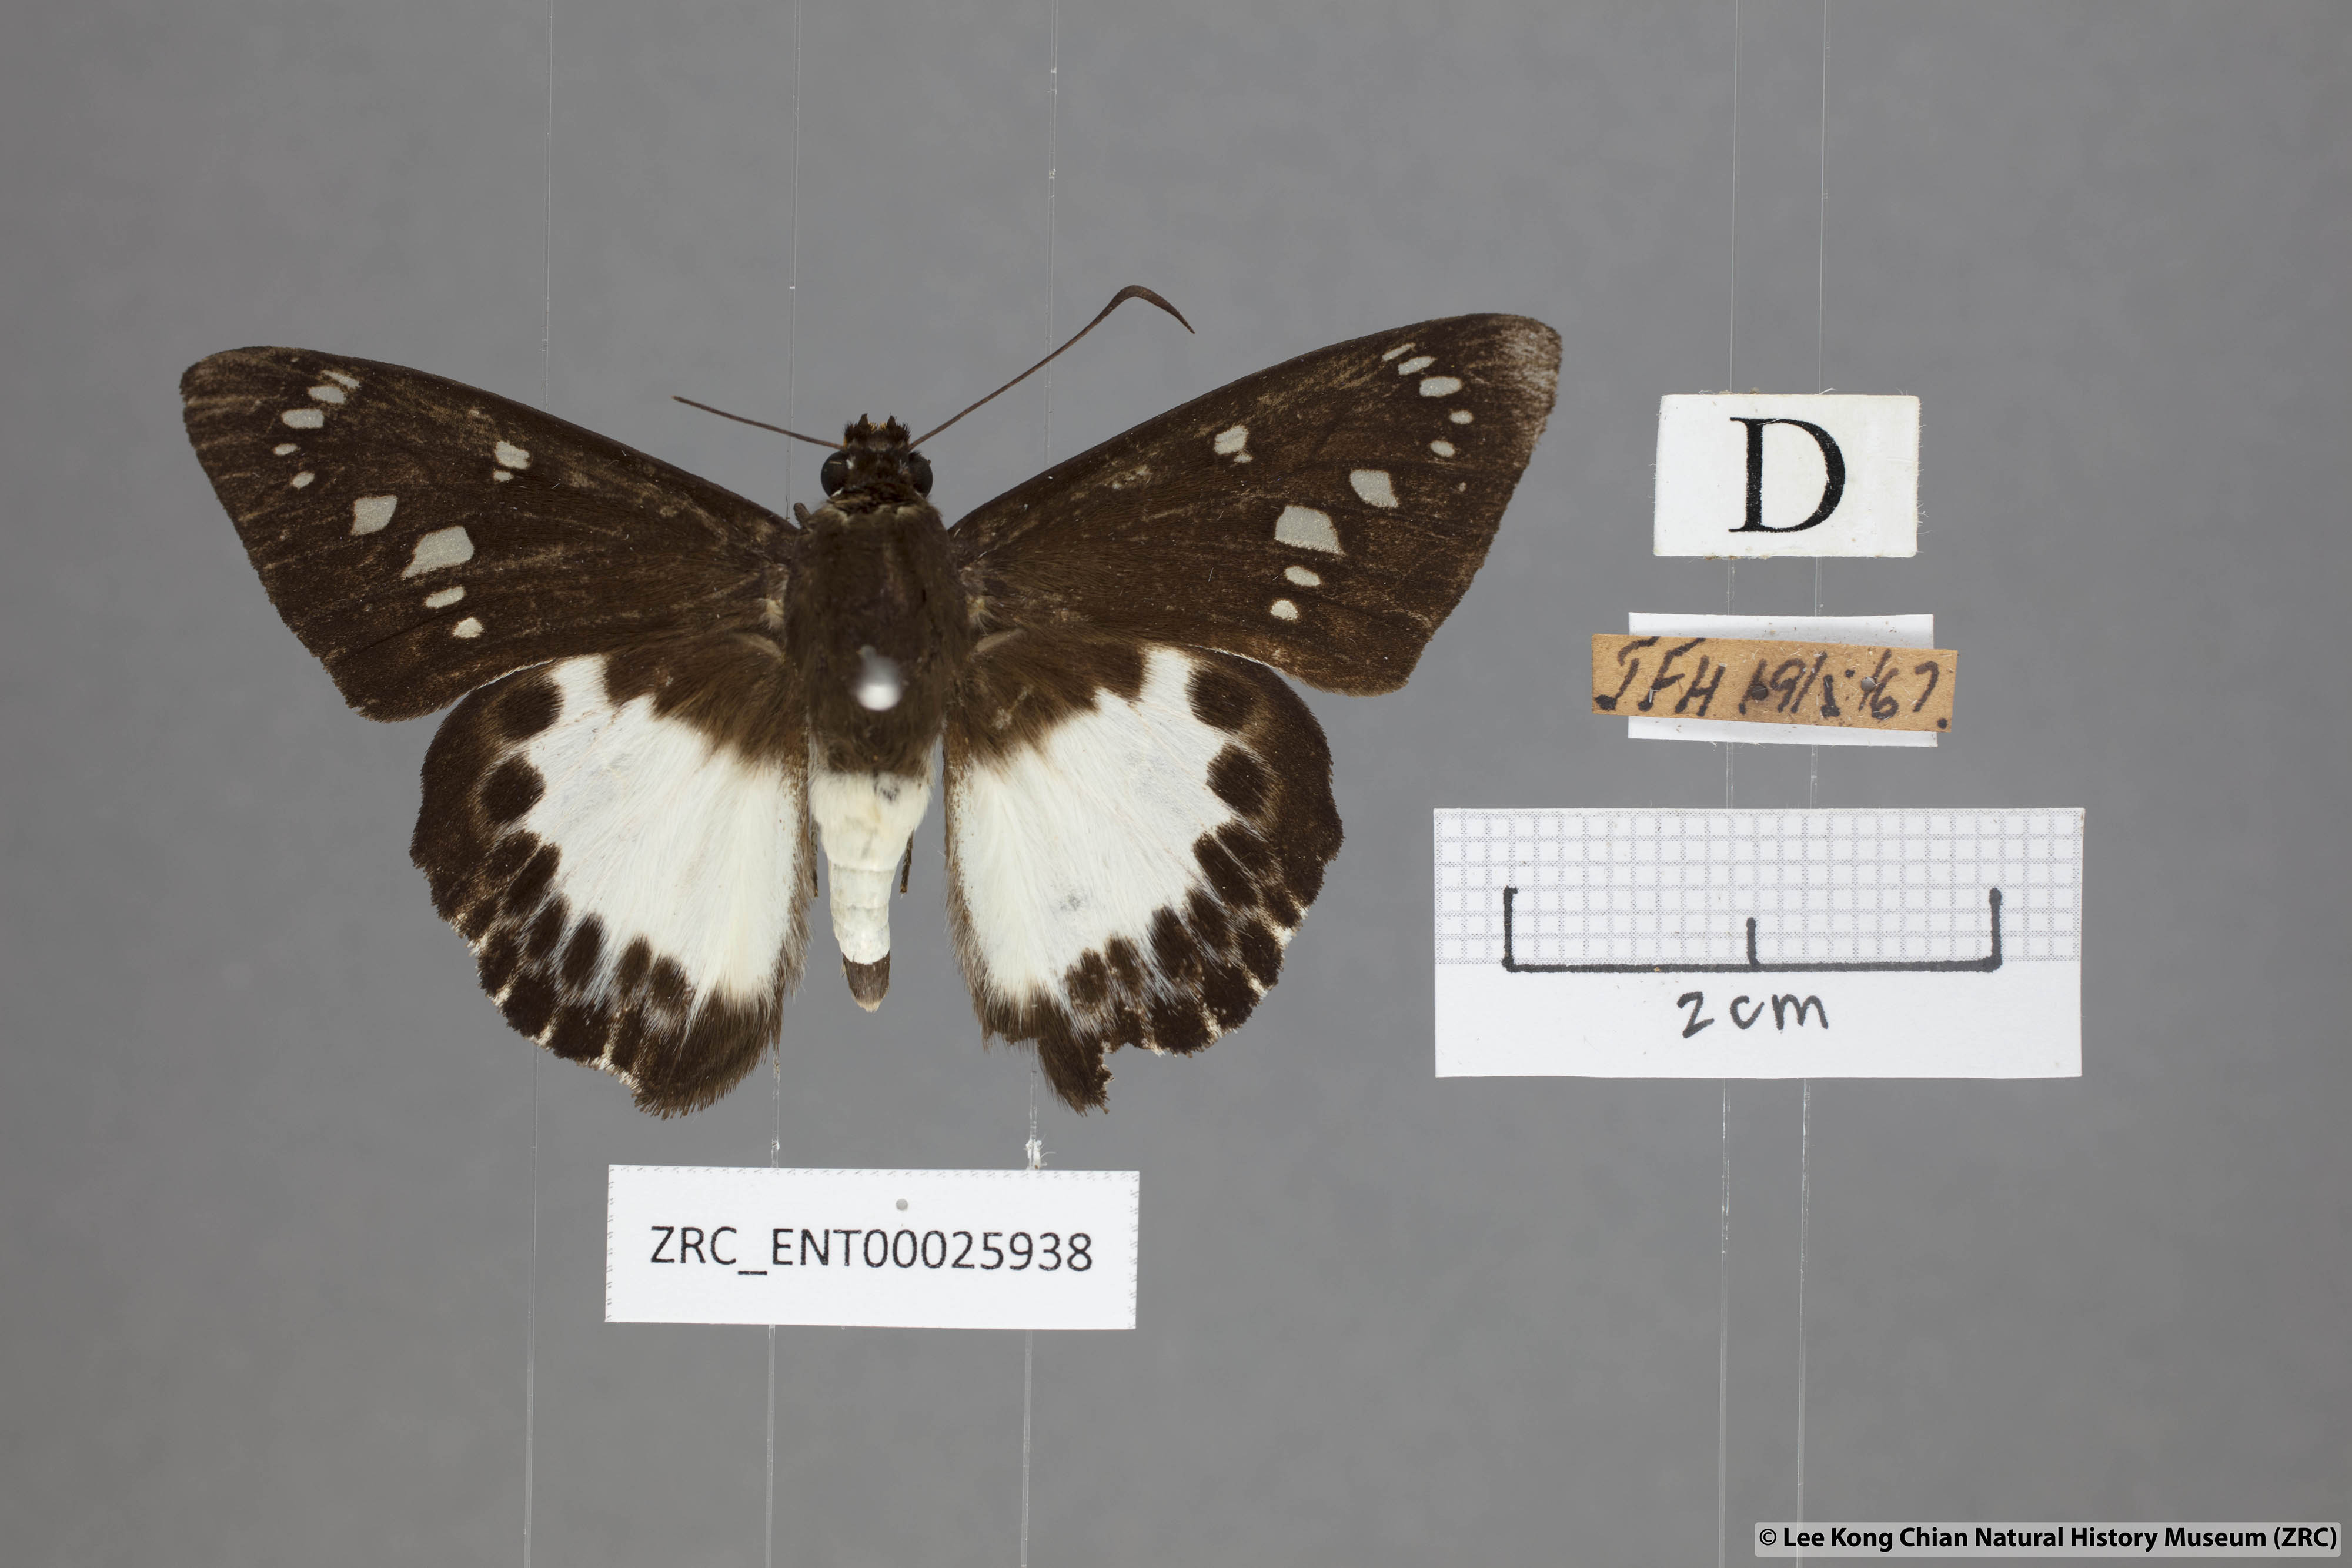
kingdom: Animalia
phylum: Arthropoda
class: Insecta
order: Lepidoptera
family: Hesperiidae
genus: Satarupa
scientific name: Satarupa gopala
